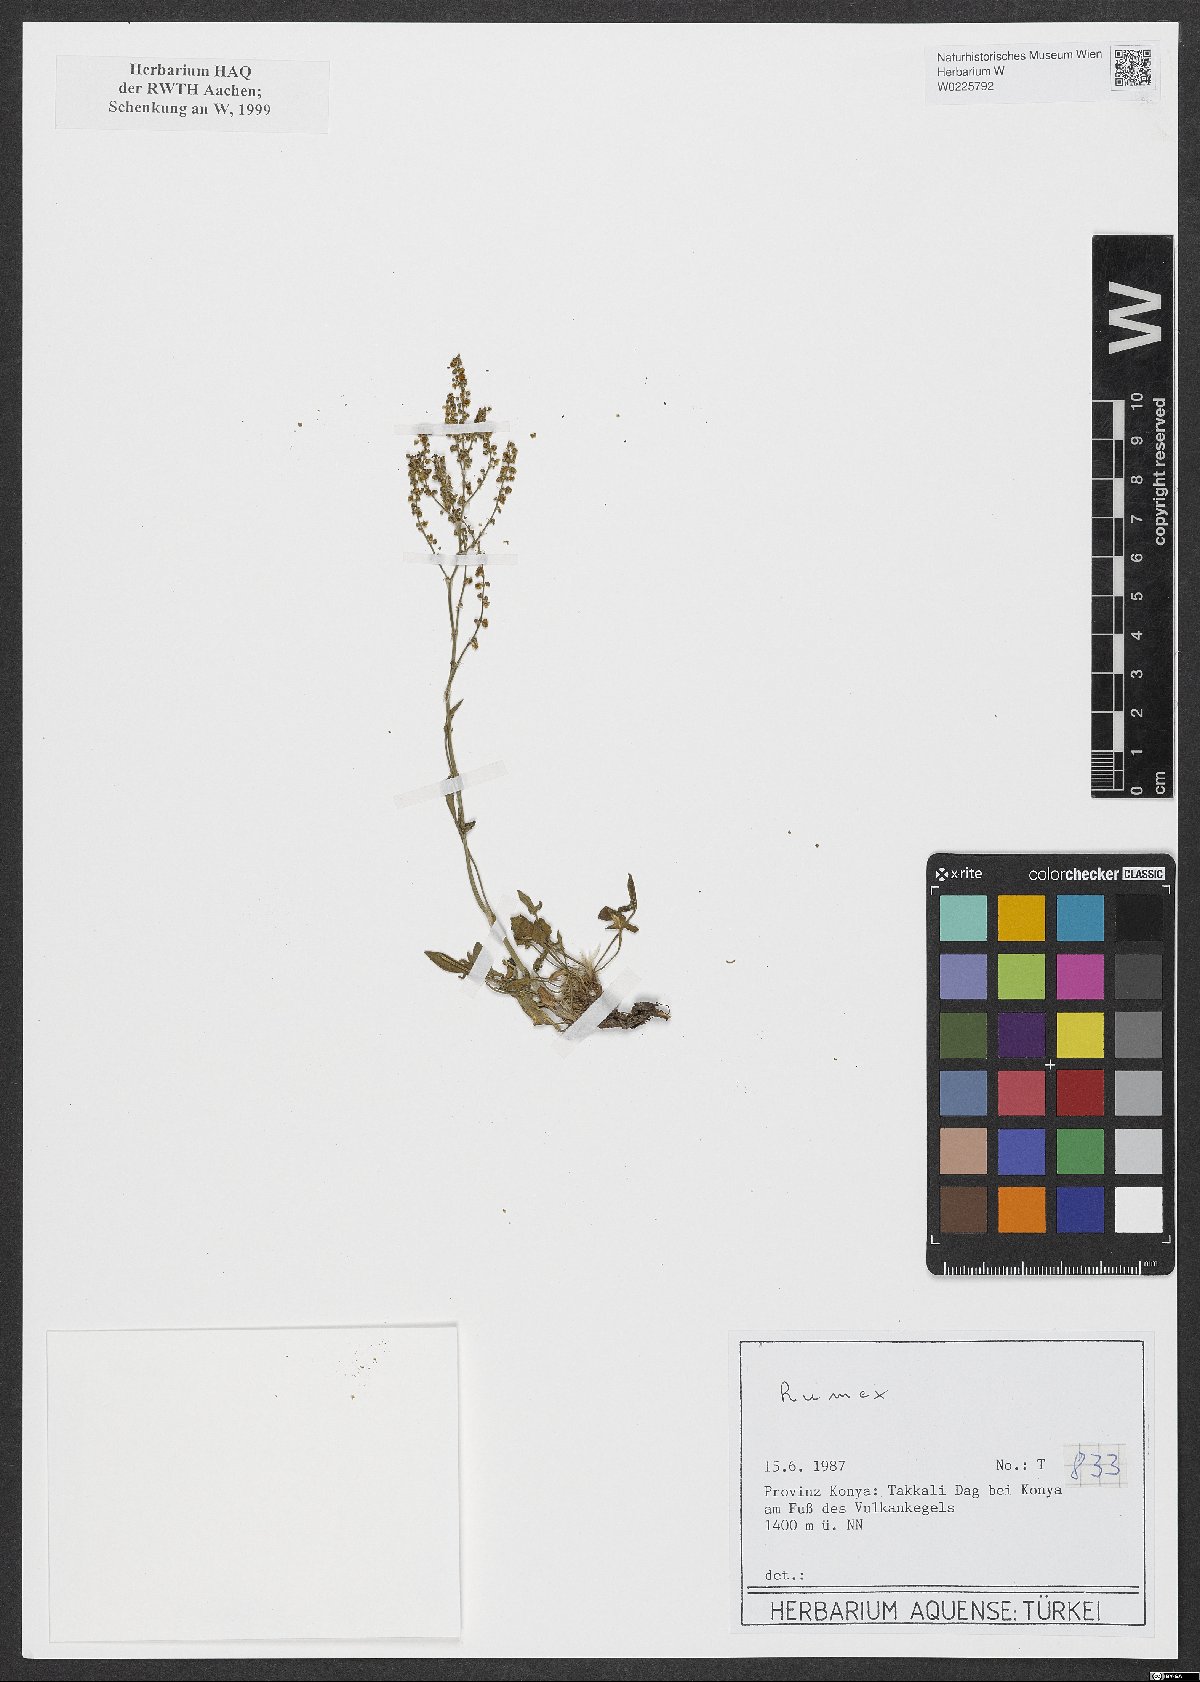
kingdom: Plantae
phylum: Tracheophyta
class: Magnoliopsida
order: Caryophyllales
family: Polygonaceae
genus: Rumex
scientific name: Rumex
